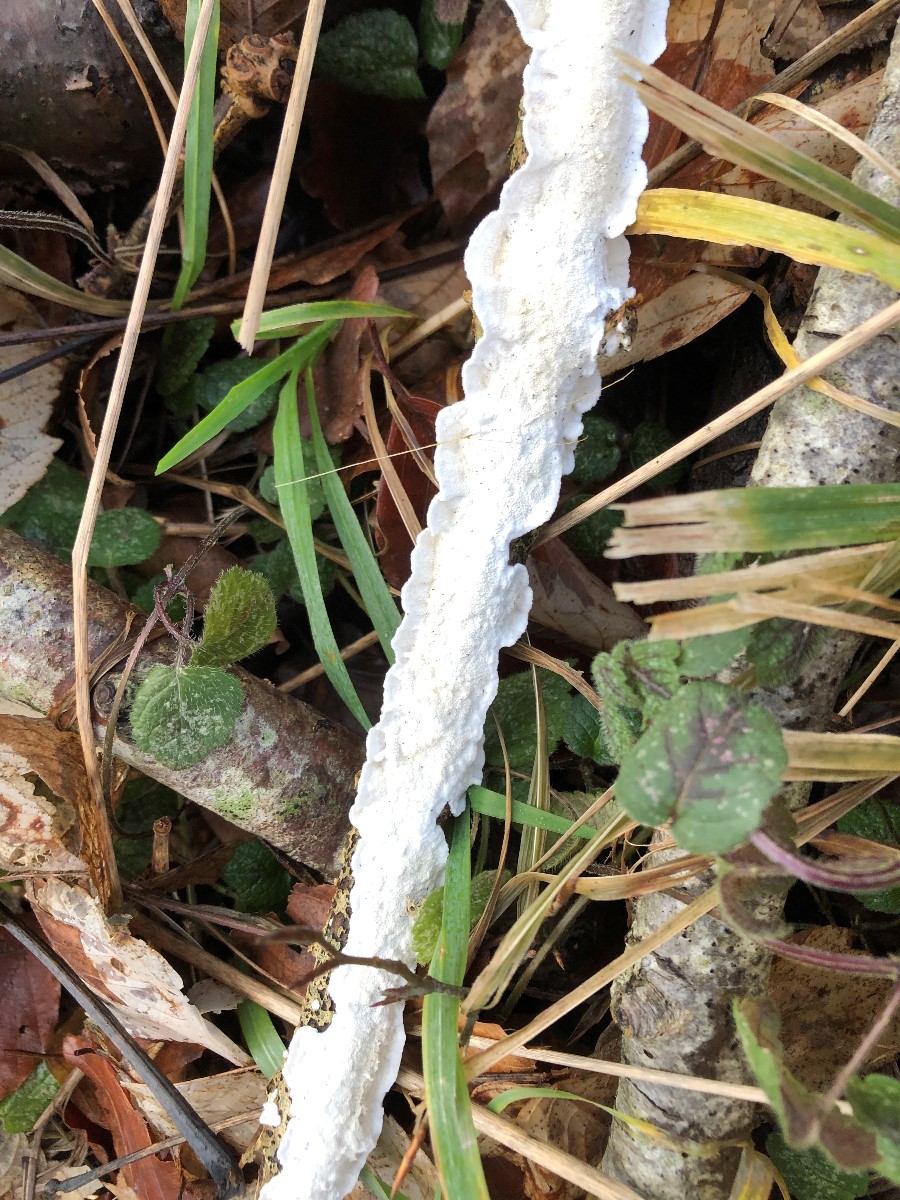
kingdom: Fungi
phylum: Basidiomycota
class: Agaricomycetes
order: Polyporales
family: Irpicaceae
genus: Byssomerulius
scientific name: Byssomerulius corium
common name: læder-åresvamp
